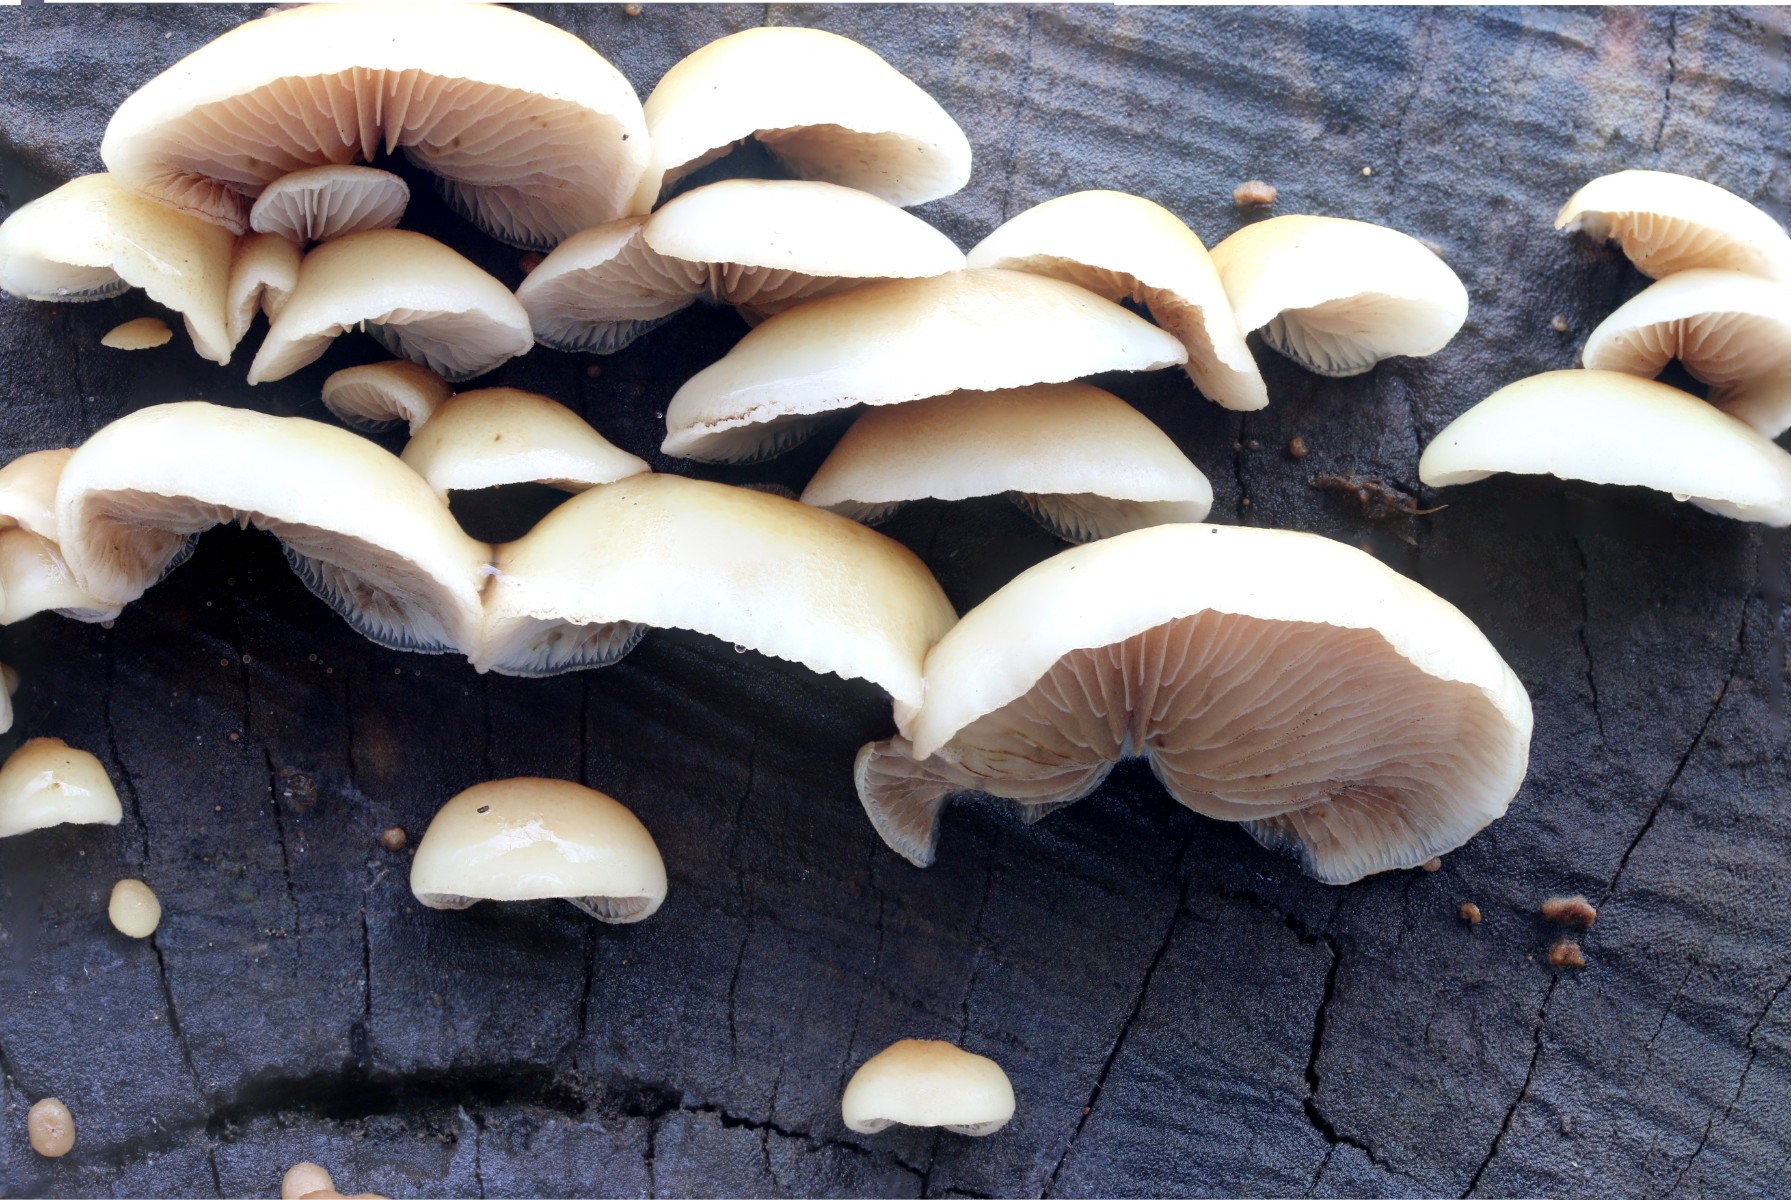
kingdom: Fungi
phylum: Basidiomycota
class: Agaricomycetes
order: Agaricales
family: Crepidotaceae
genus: Crepidotus
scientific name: Crepidotus mollis
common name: blød muslingesvamp
